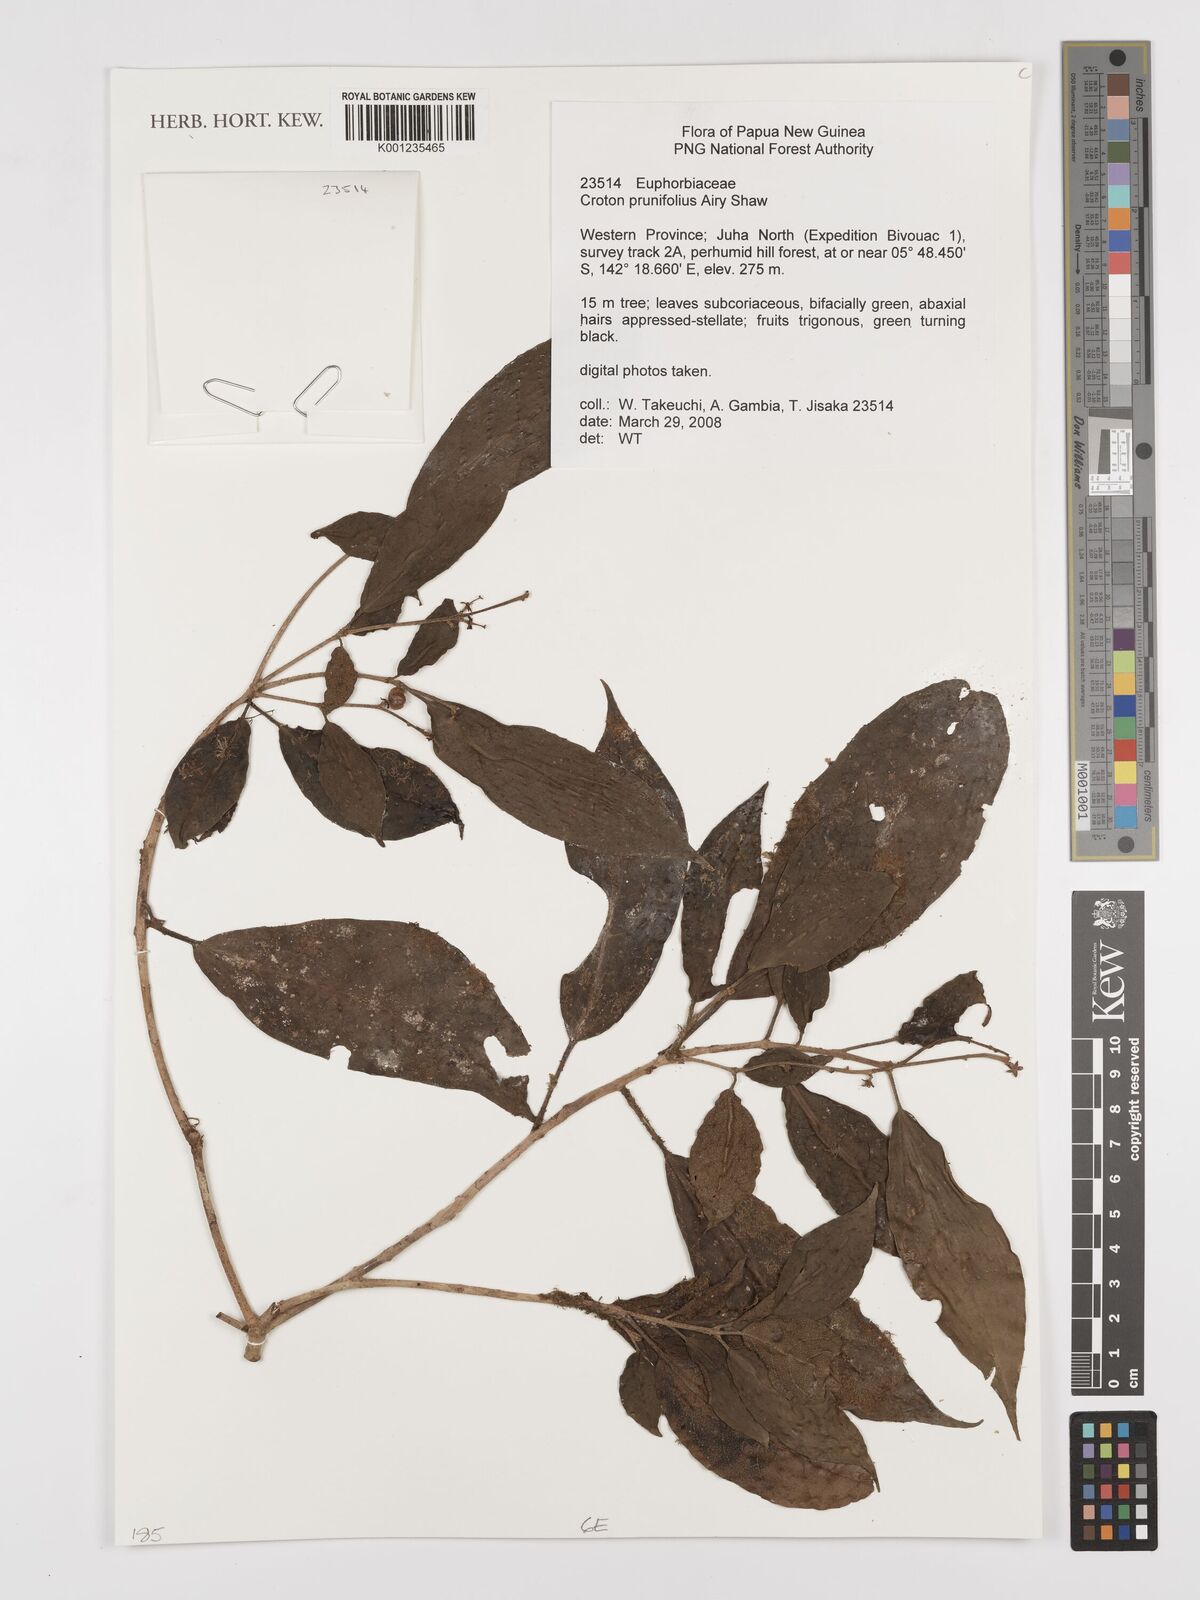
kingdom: Plantae
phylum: Tracheophyta
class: Magnoliopsida
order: Malpighiales
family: Euphorbiaceae
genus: Croton
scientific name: Croton coccymelophyllus
